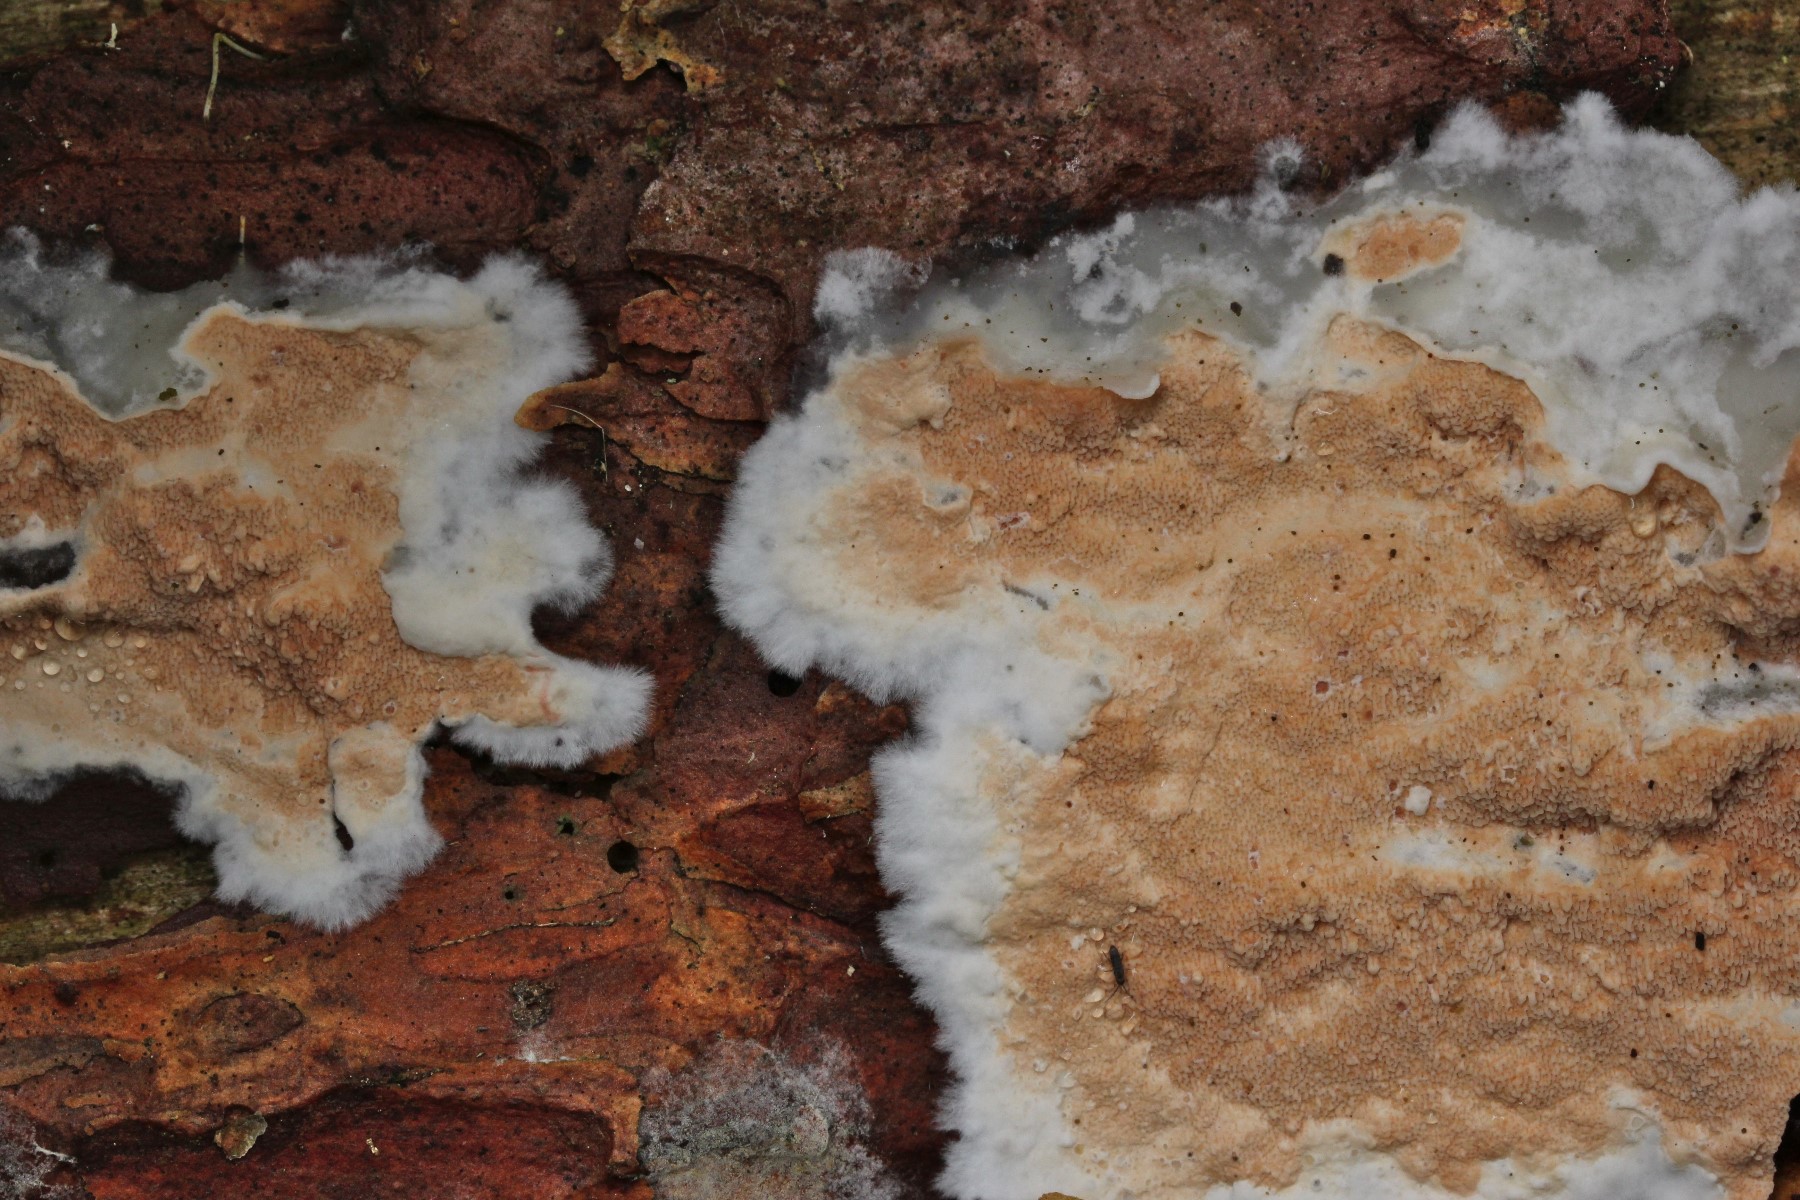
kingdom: Fungi
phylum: Basidiomycota
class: Agaricomycetes
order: Polyporales
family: Irpicaceae
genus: Meruliopsis
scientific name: Meruliopsis taxicola
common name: purpurbrun foldporesvamp
